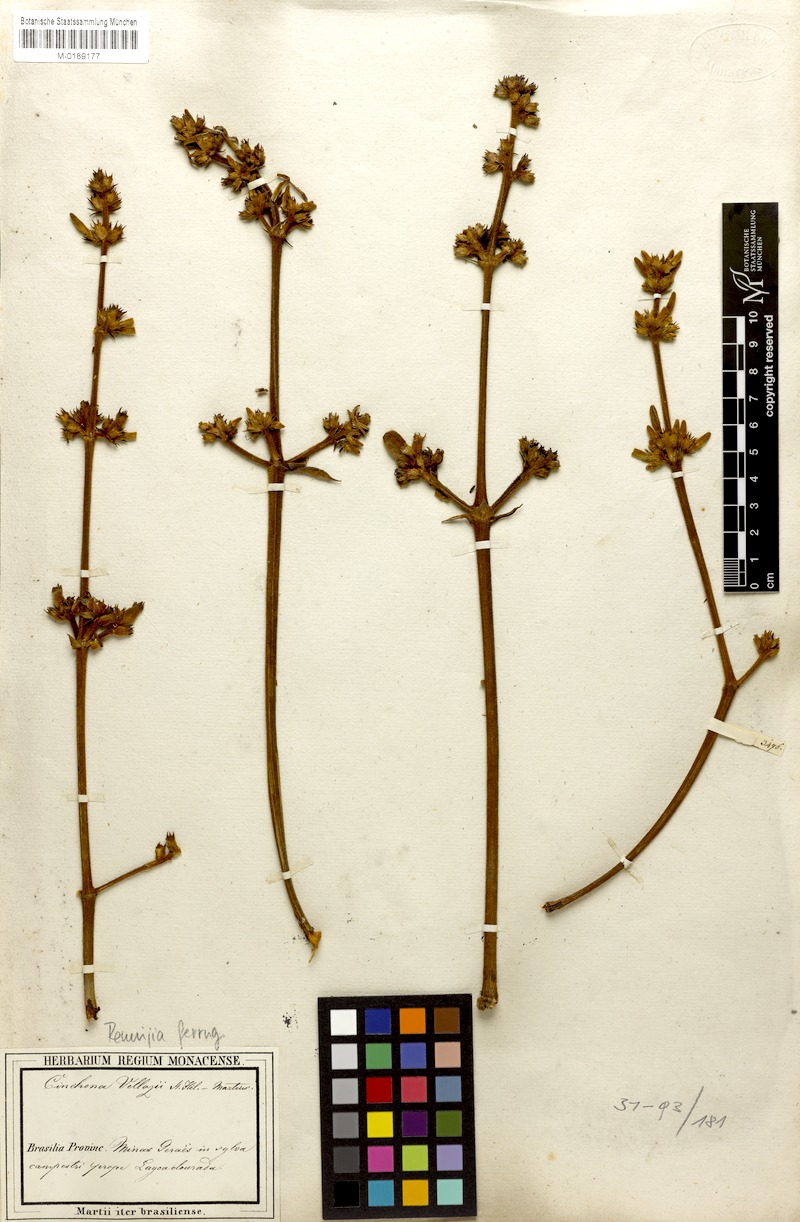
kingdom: Plantae
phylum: Tracheophyta
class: Magnoliopsida
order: Gentianales
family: Rubiaceae
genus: Remijia
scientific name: Remijia ferruginea
